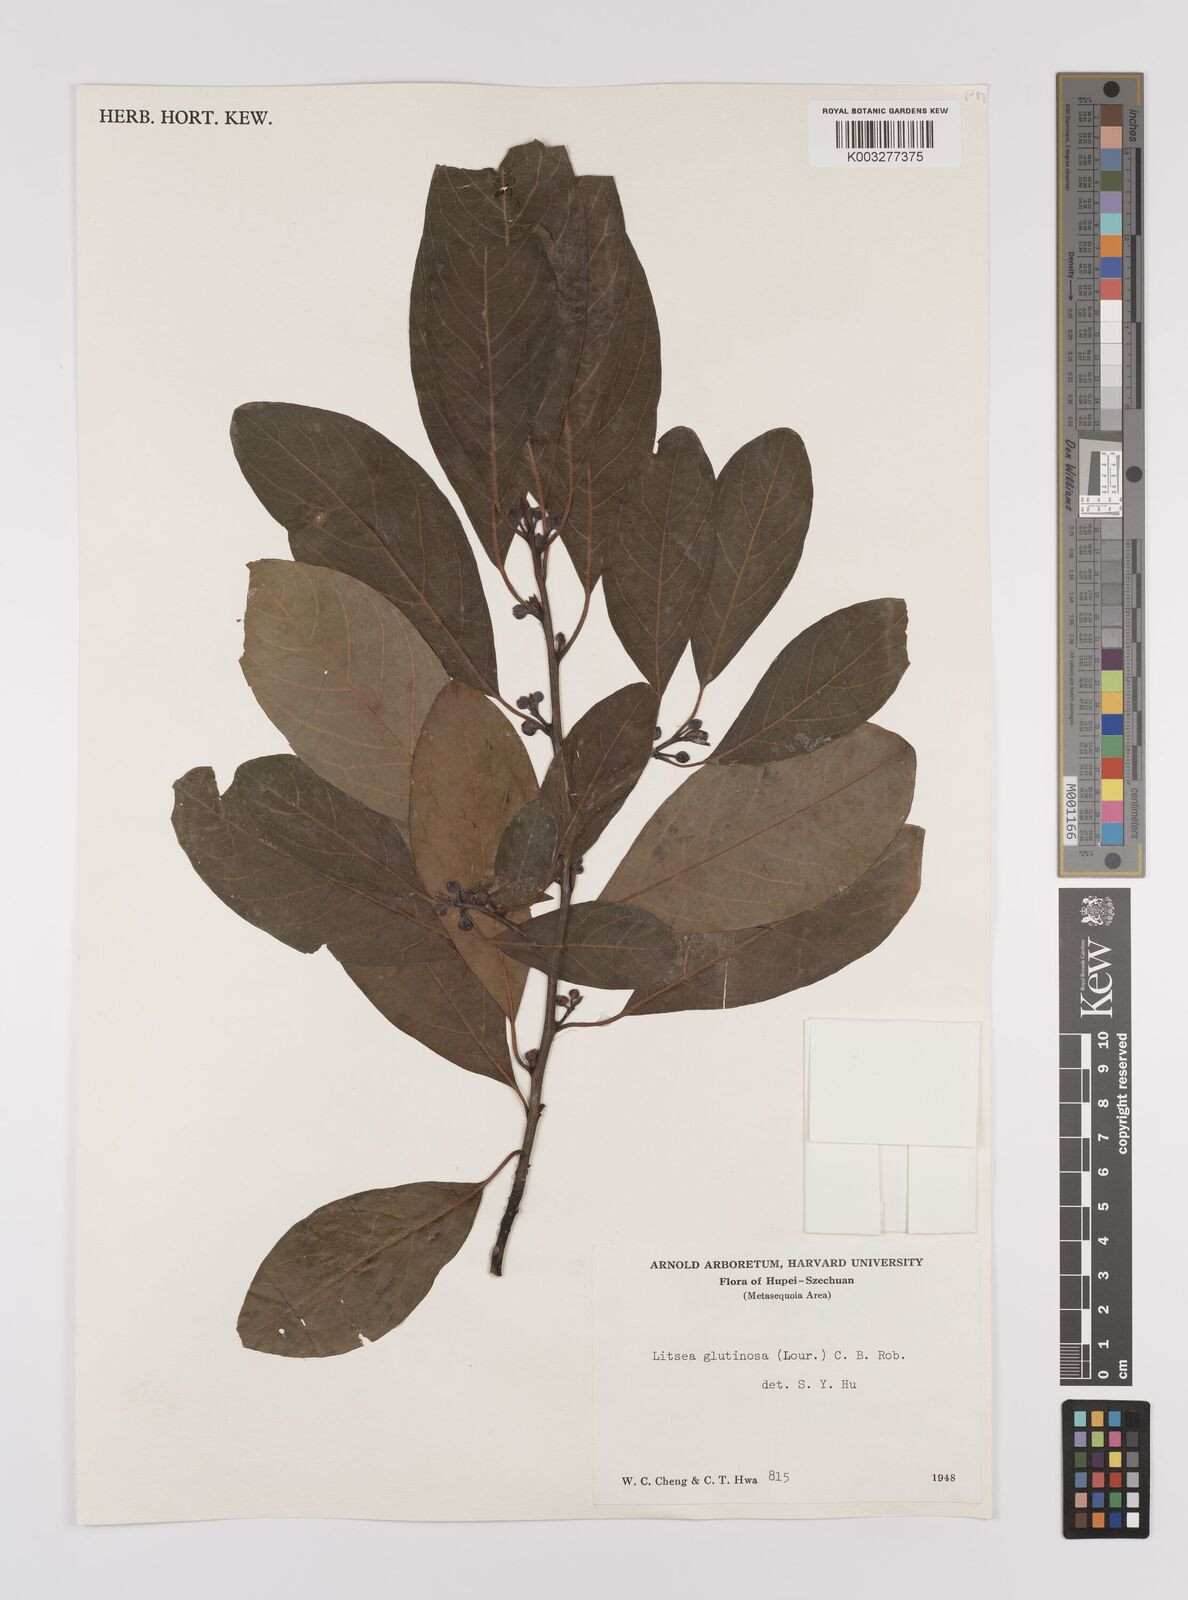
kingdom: Plantae
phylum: Tracheophyta
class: Magnoliopsida
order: Laurales
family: Lauraceae
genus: Litsea
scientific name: Litsea glutinosa
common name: Indian-laurel
